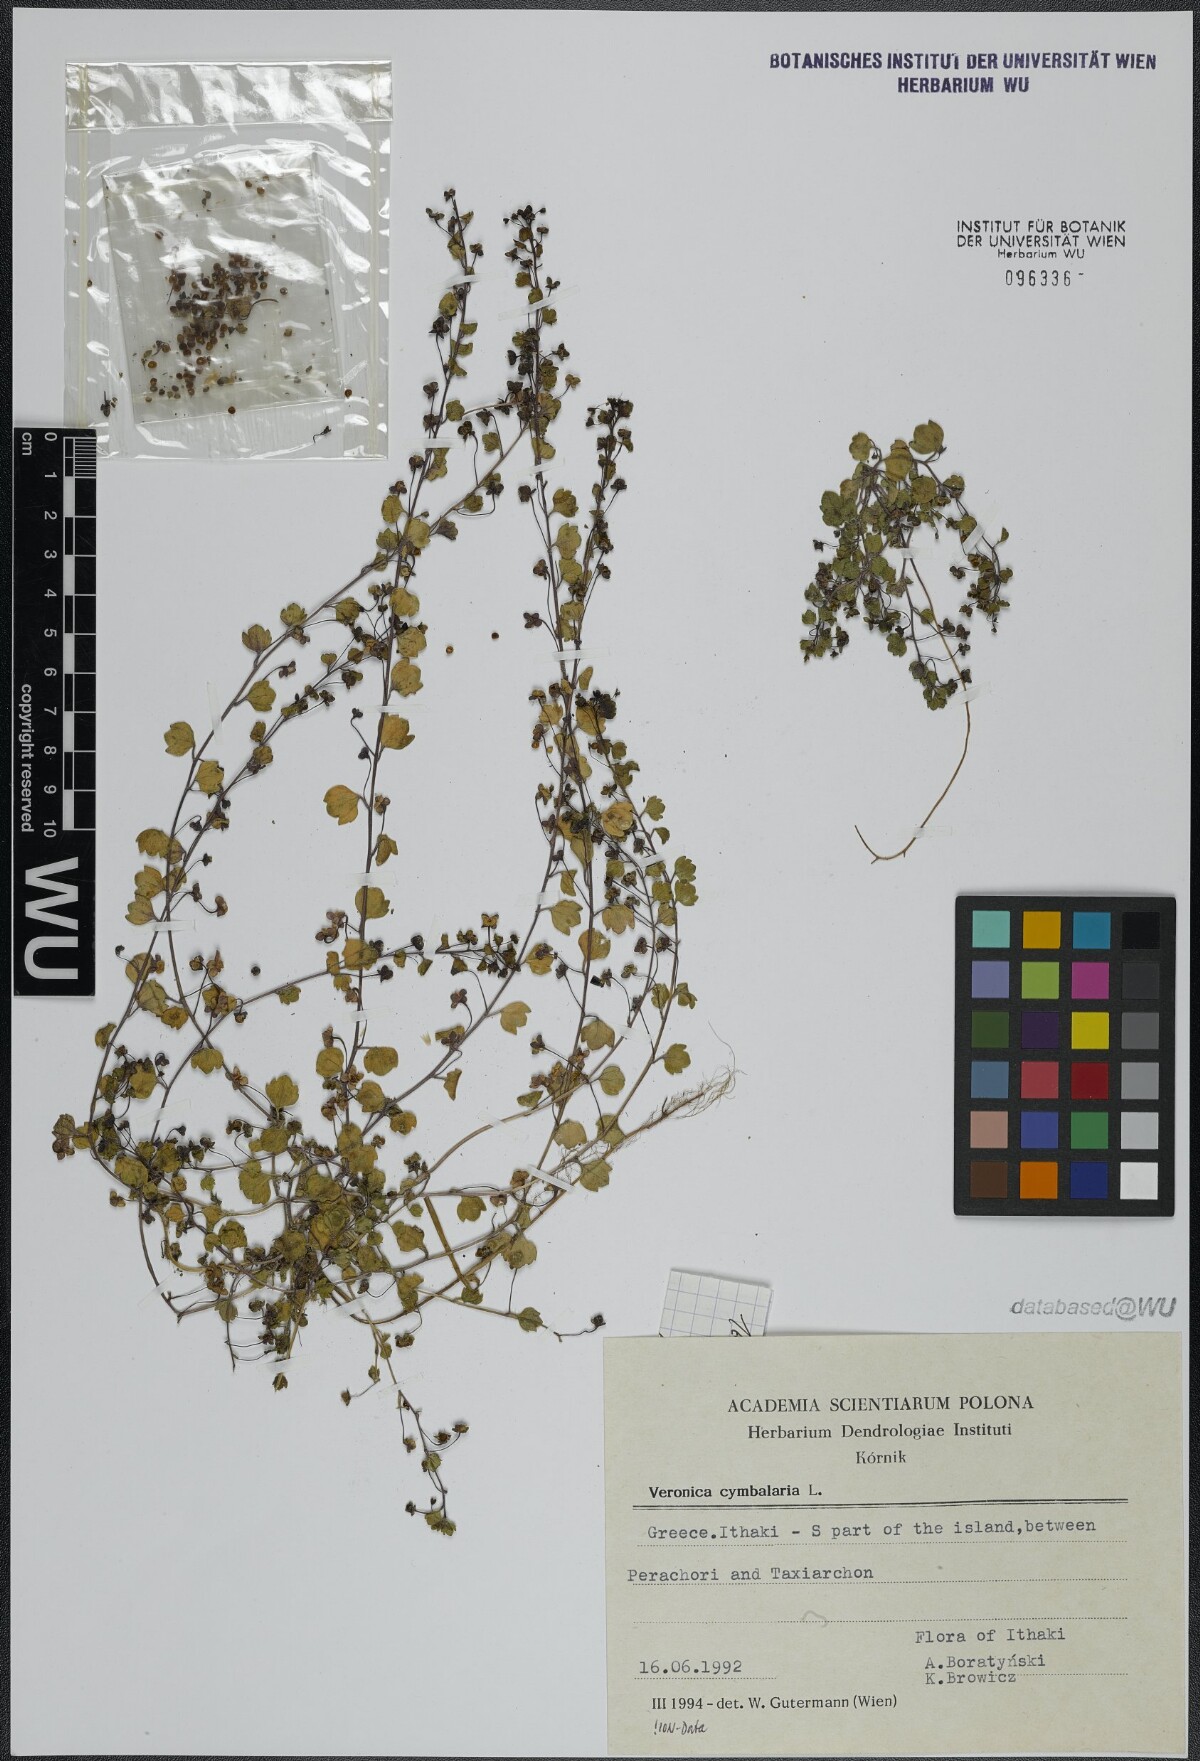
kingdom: Plantae
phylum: Tracheophyta
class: Magnoliopsida
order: Lamiales
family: Plantaginaceae
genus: Veronica
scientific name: Veronica cymbalaria
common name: Pale speedwell
